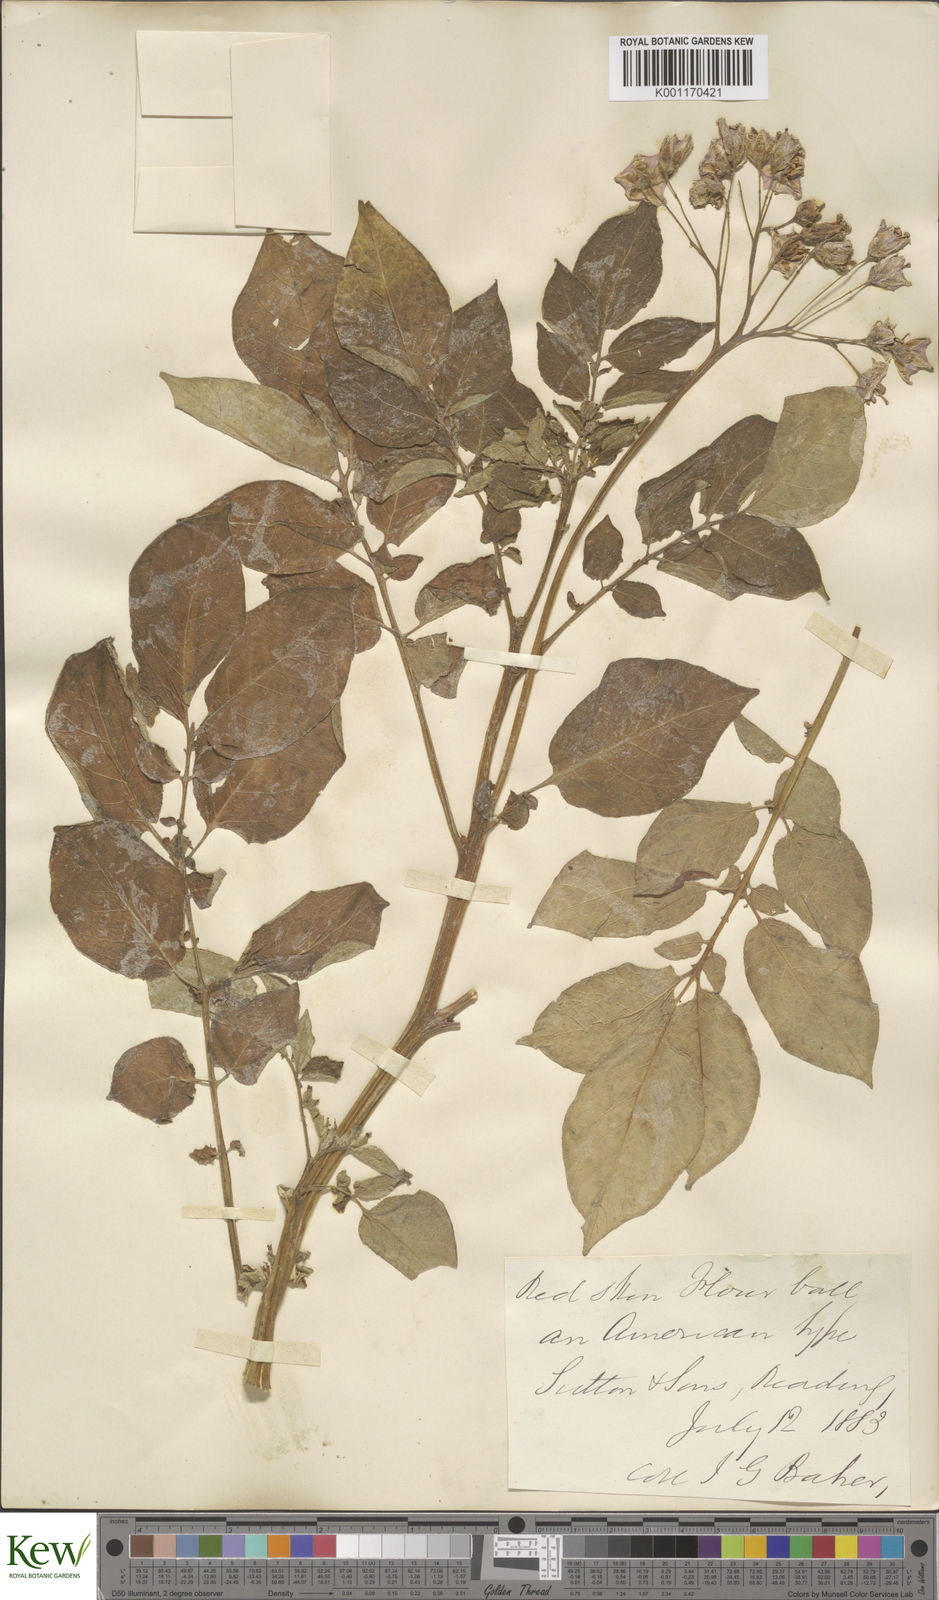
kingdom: Plantae
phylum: Tracheophyta
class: Magnoliopsida
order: Solanales
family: Solanaceae
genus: Solanum
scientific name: Solanum tuberosum
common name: Potato
